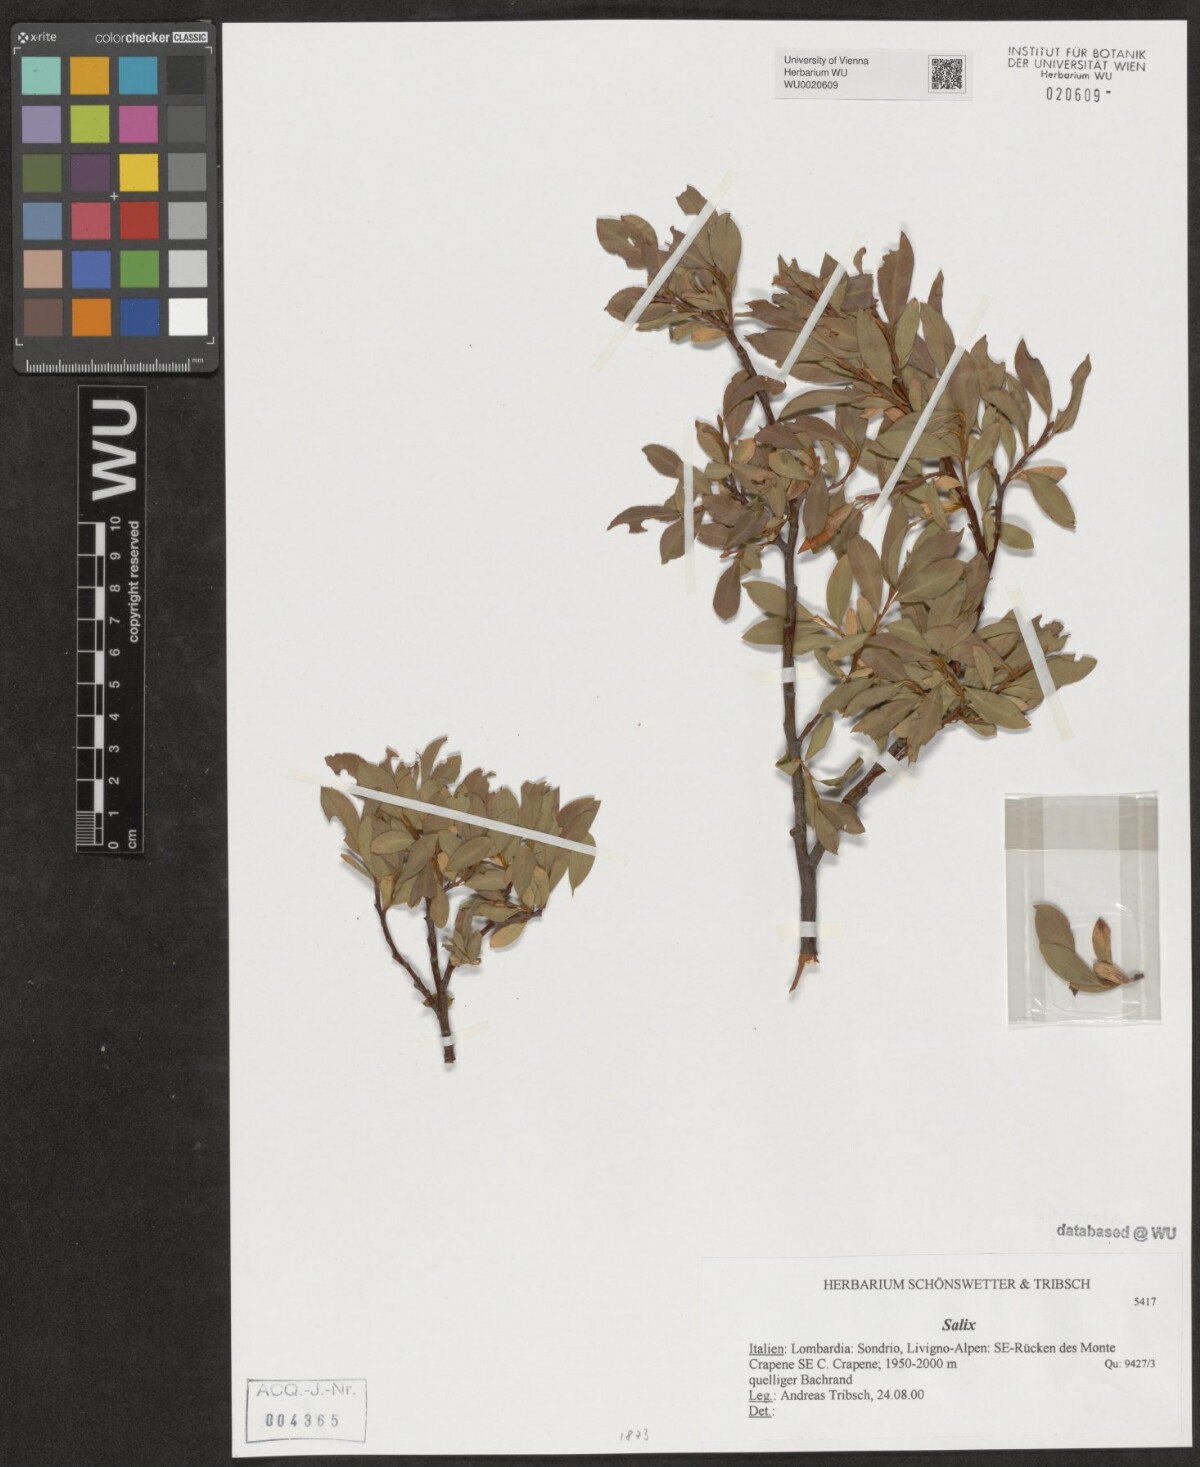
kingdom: Plantae
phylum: Tracheophyta
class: Magnoliopsida
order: Malpighiales
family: Salicaceae
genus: Salix
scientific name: Salix
